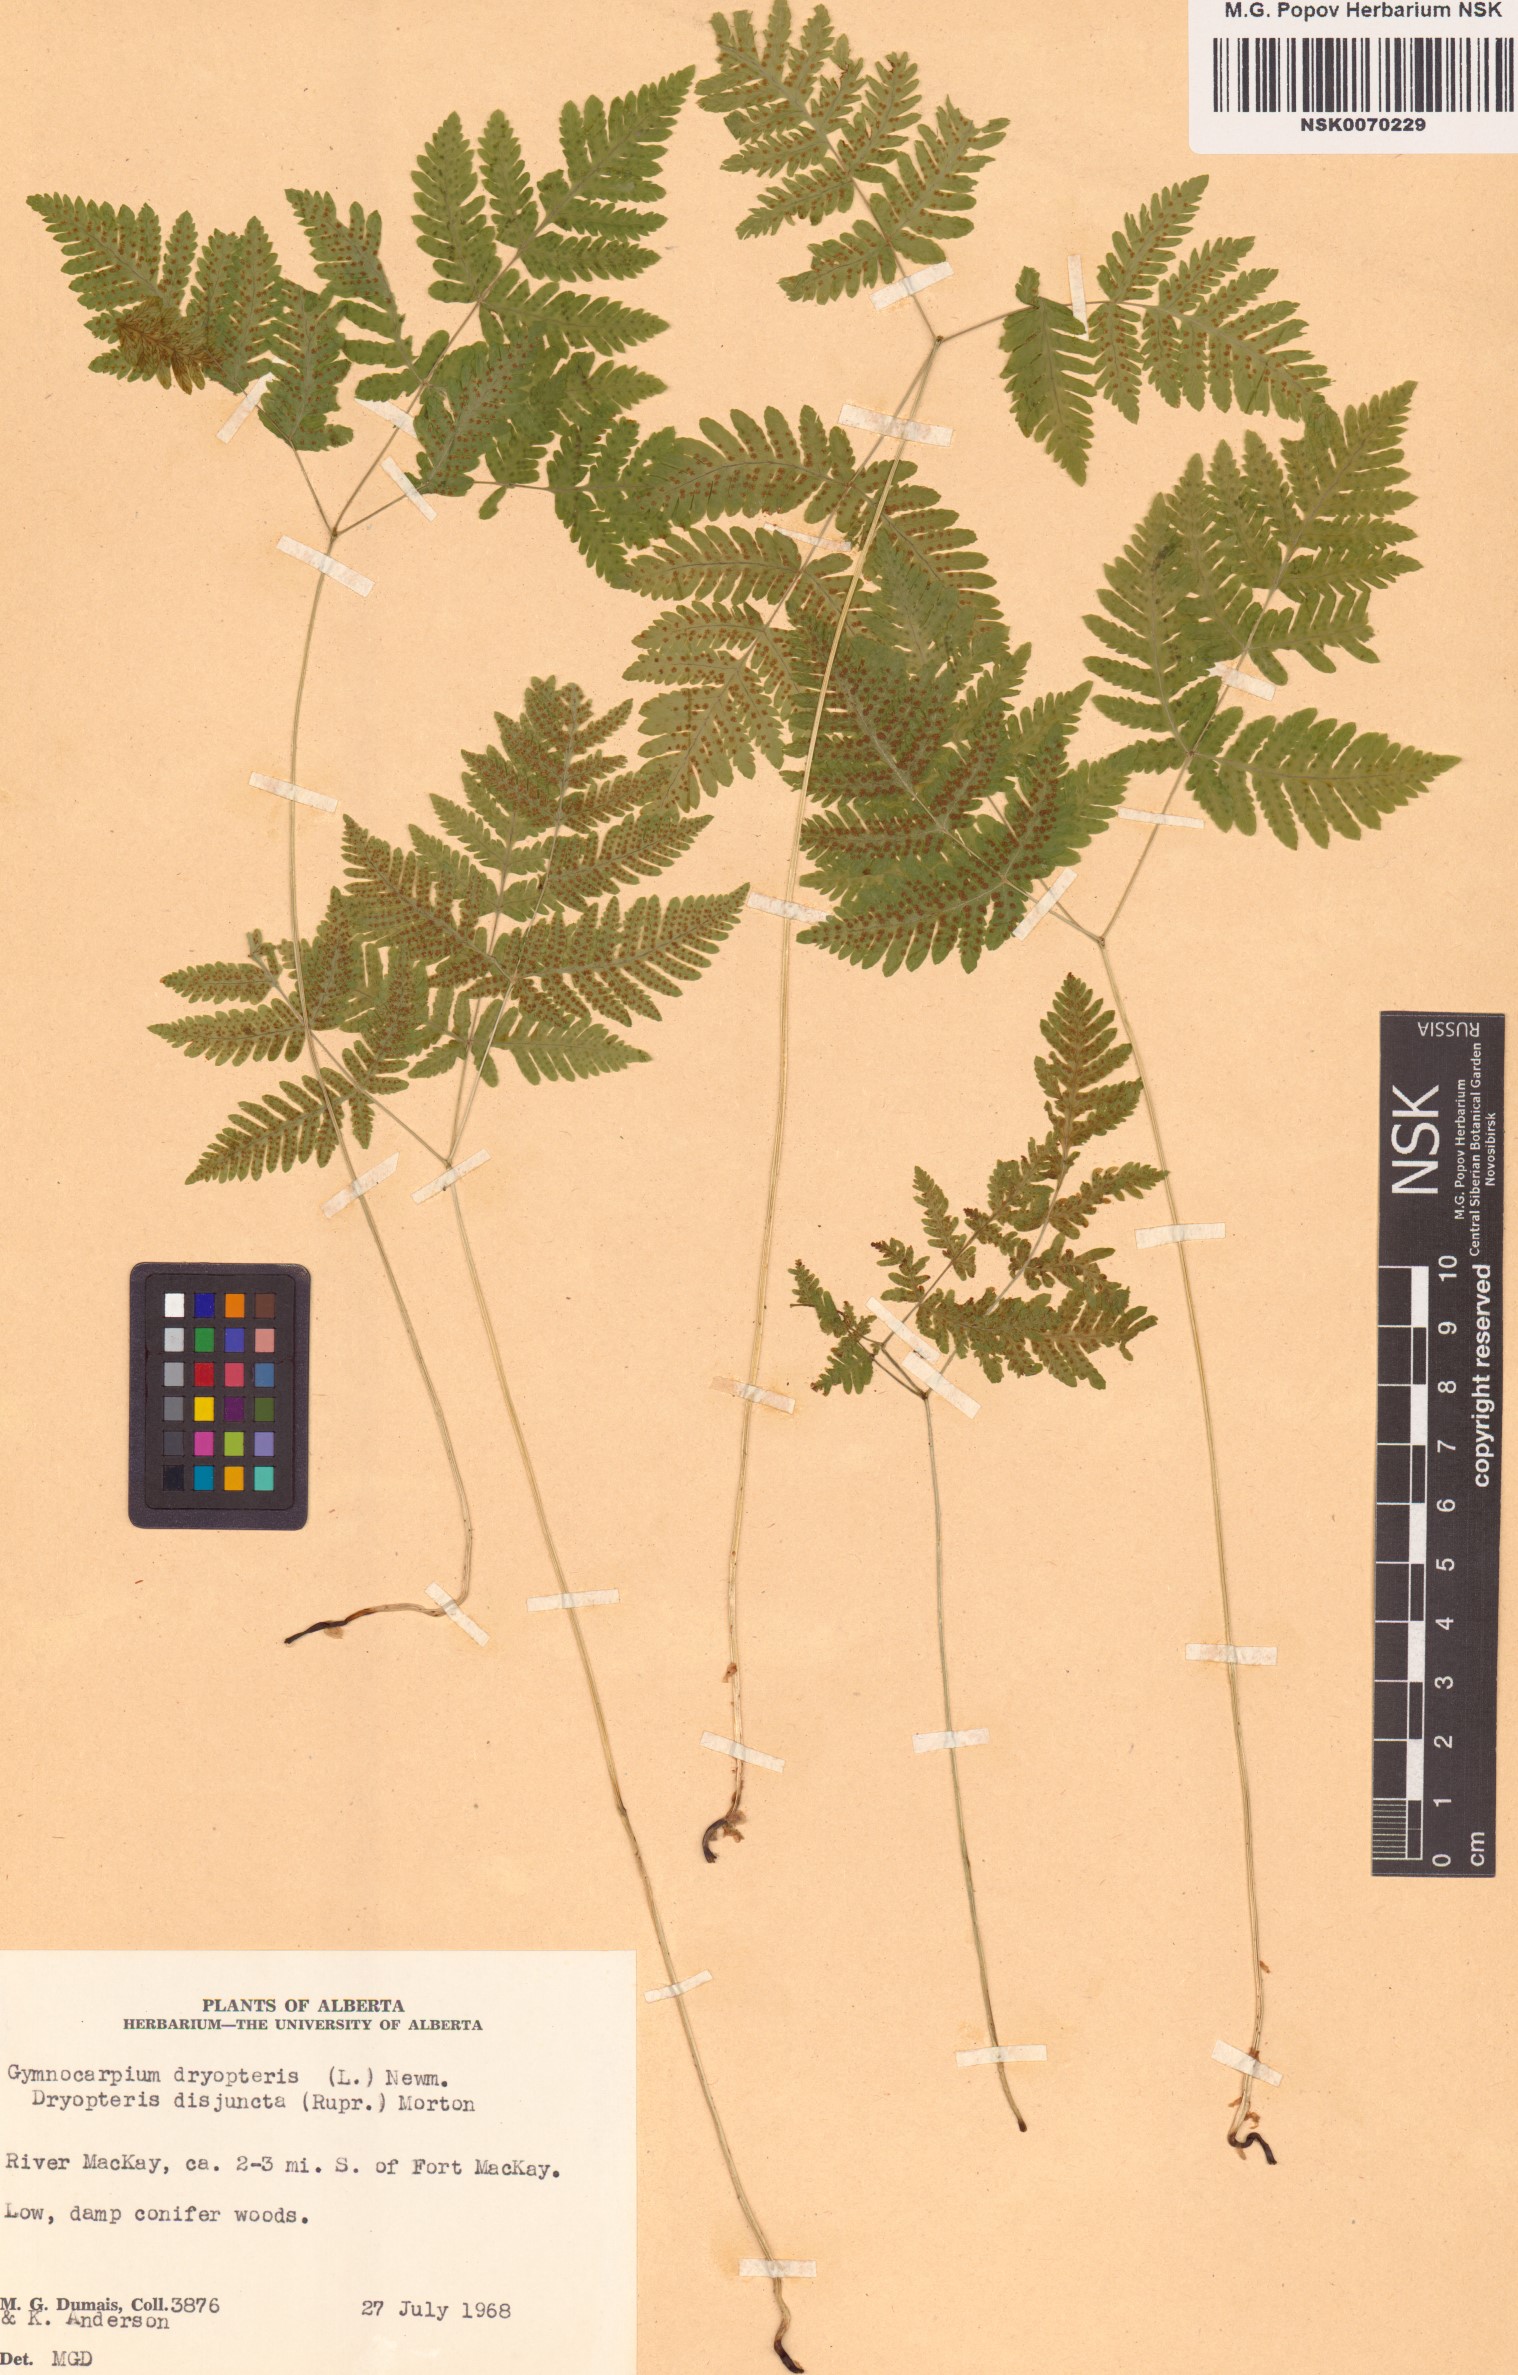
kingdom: Plantae
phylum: Tracheophyta
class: Polypodiopsida
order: Polypodiales
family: Cystopteridaceae
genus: Gymnocarpium
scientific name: Gymnocarpium dryopteris
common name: Oak fern
